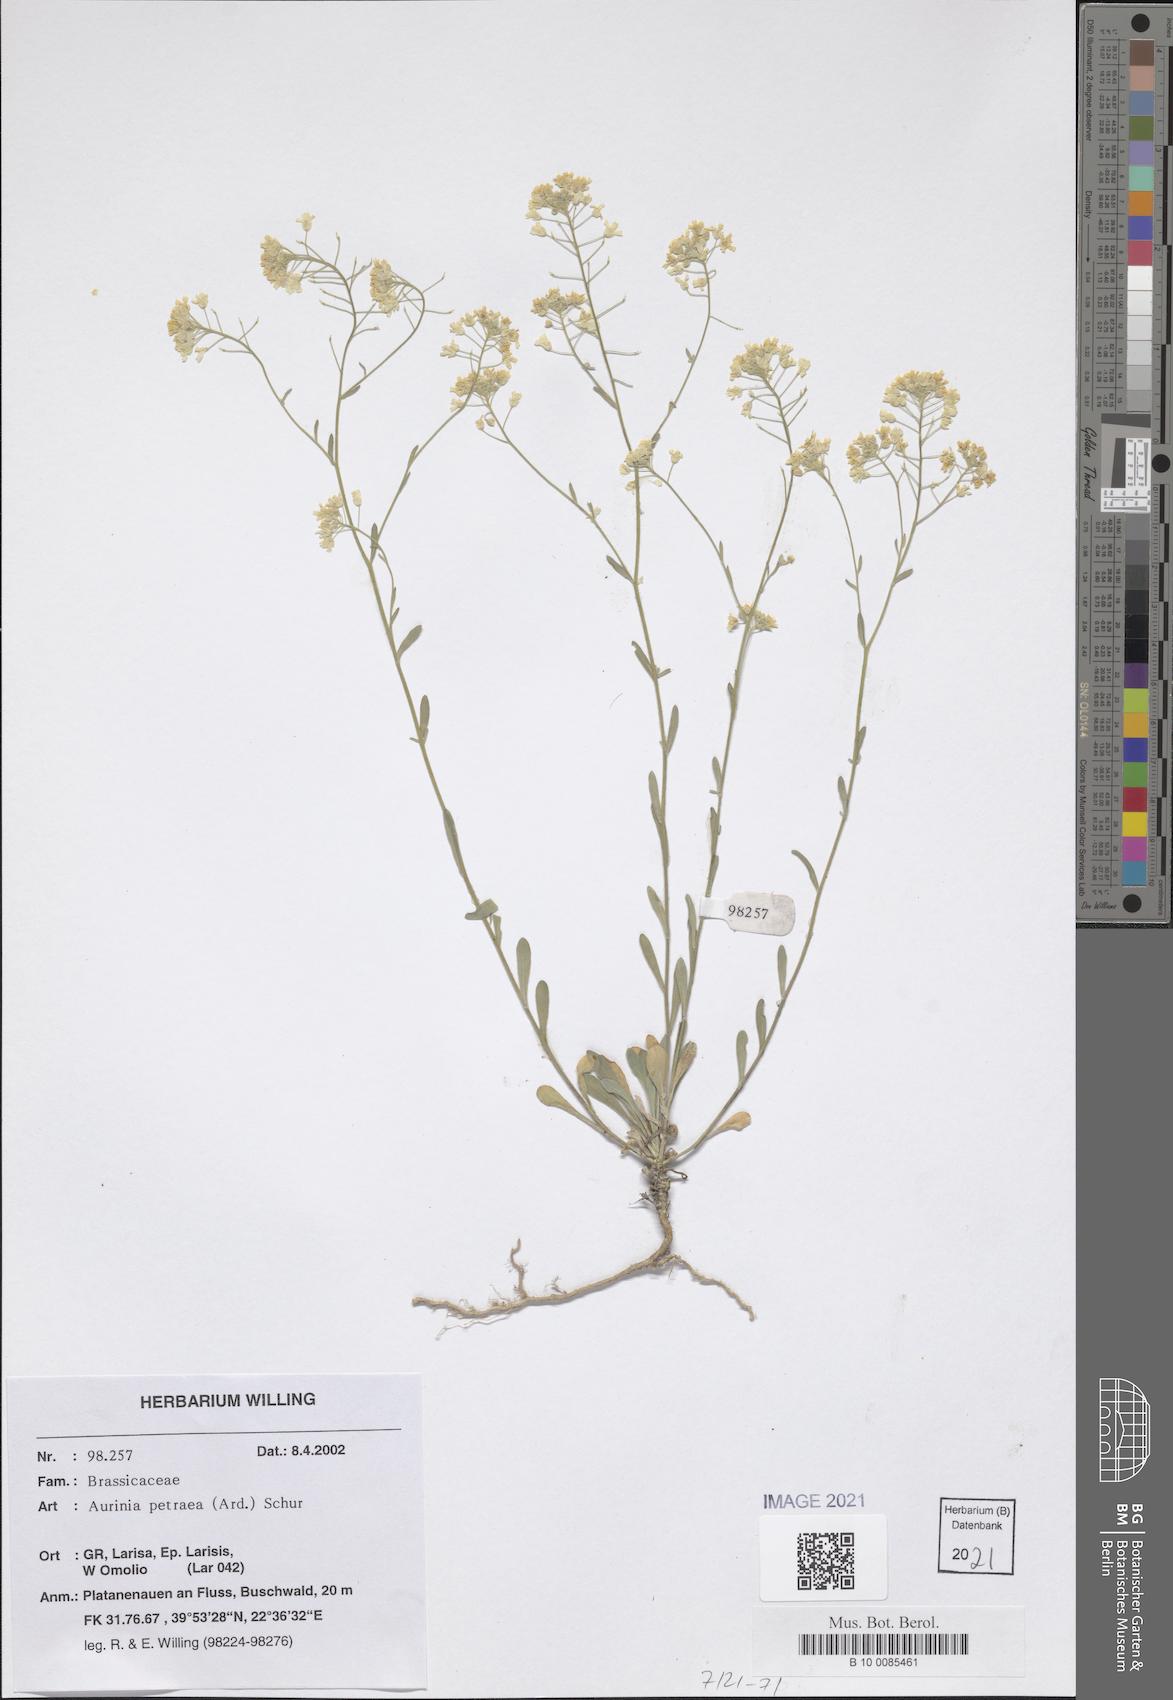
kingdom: Plantae
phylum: Tracheophyta
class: Magnoliopsida
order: Brassicales
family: Brassicaceae
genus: Aurinia
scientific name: Aurinia petraea
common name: Goldentuft
